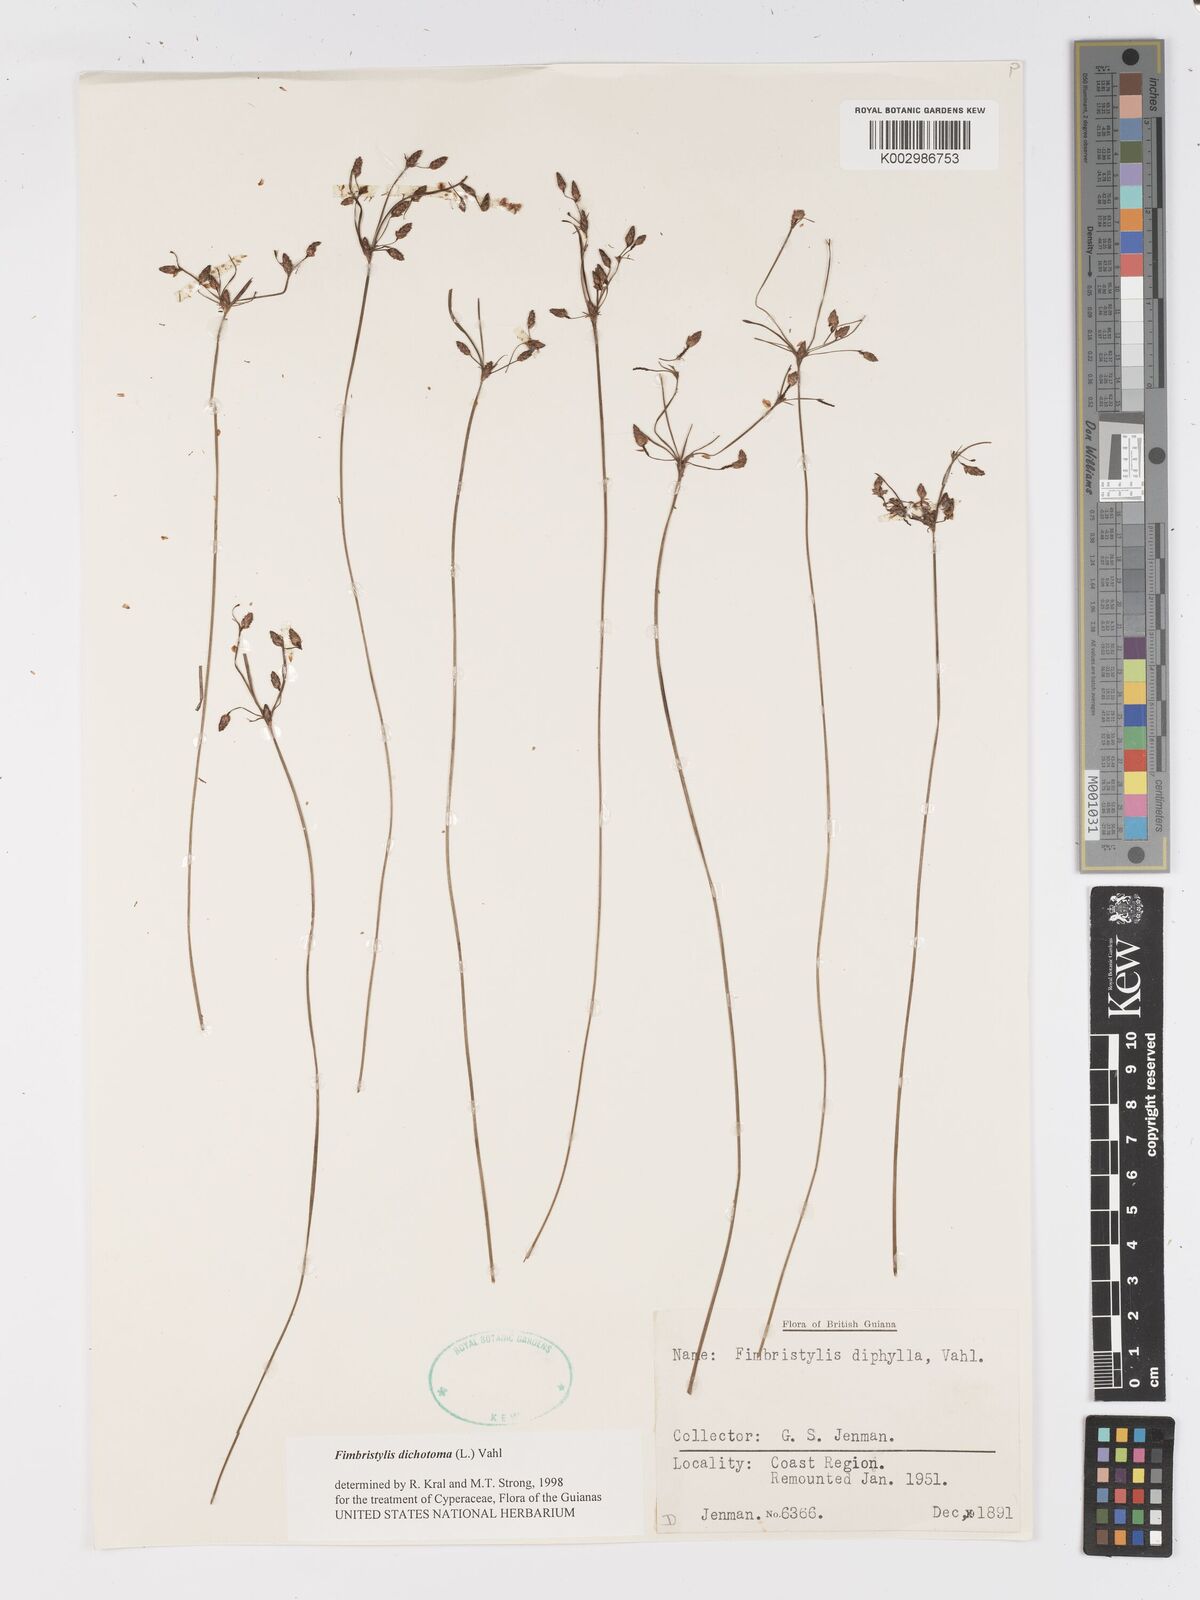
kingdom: Plantae
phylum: Tracheophyta
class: Liliopsida
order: Poales
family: Cyperaceae
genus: Fimbristylis
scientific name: Fimbristylis dichotoma
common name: Forked fimbry
